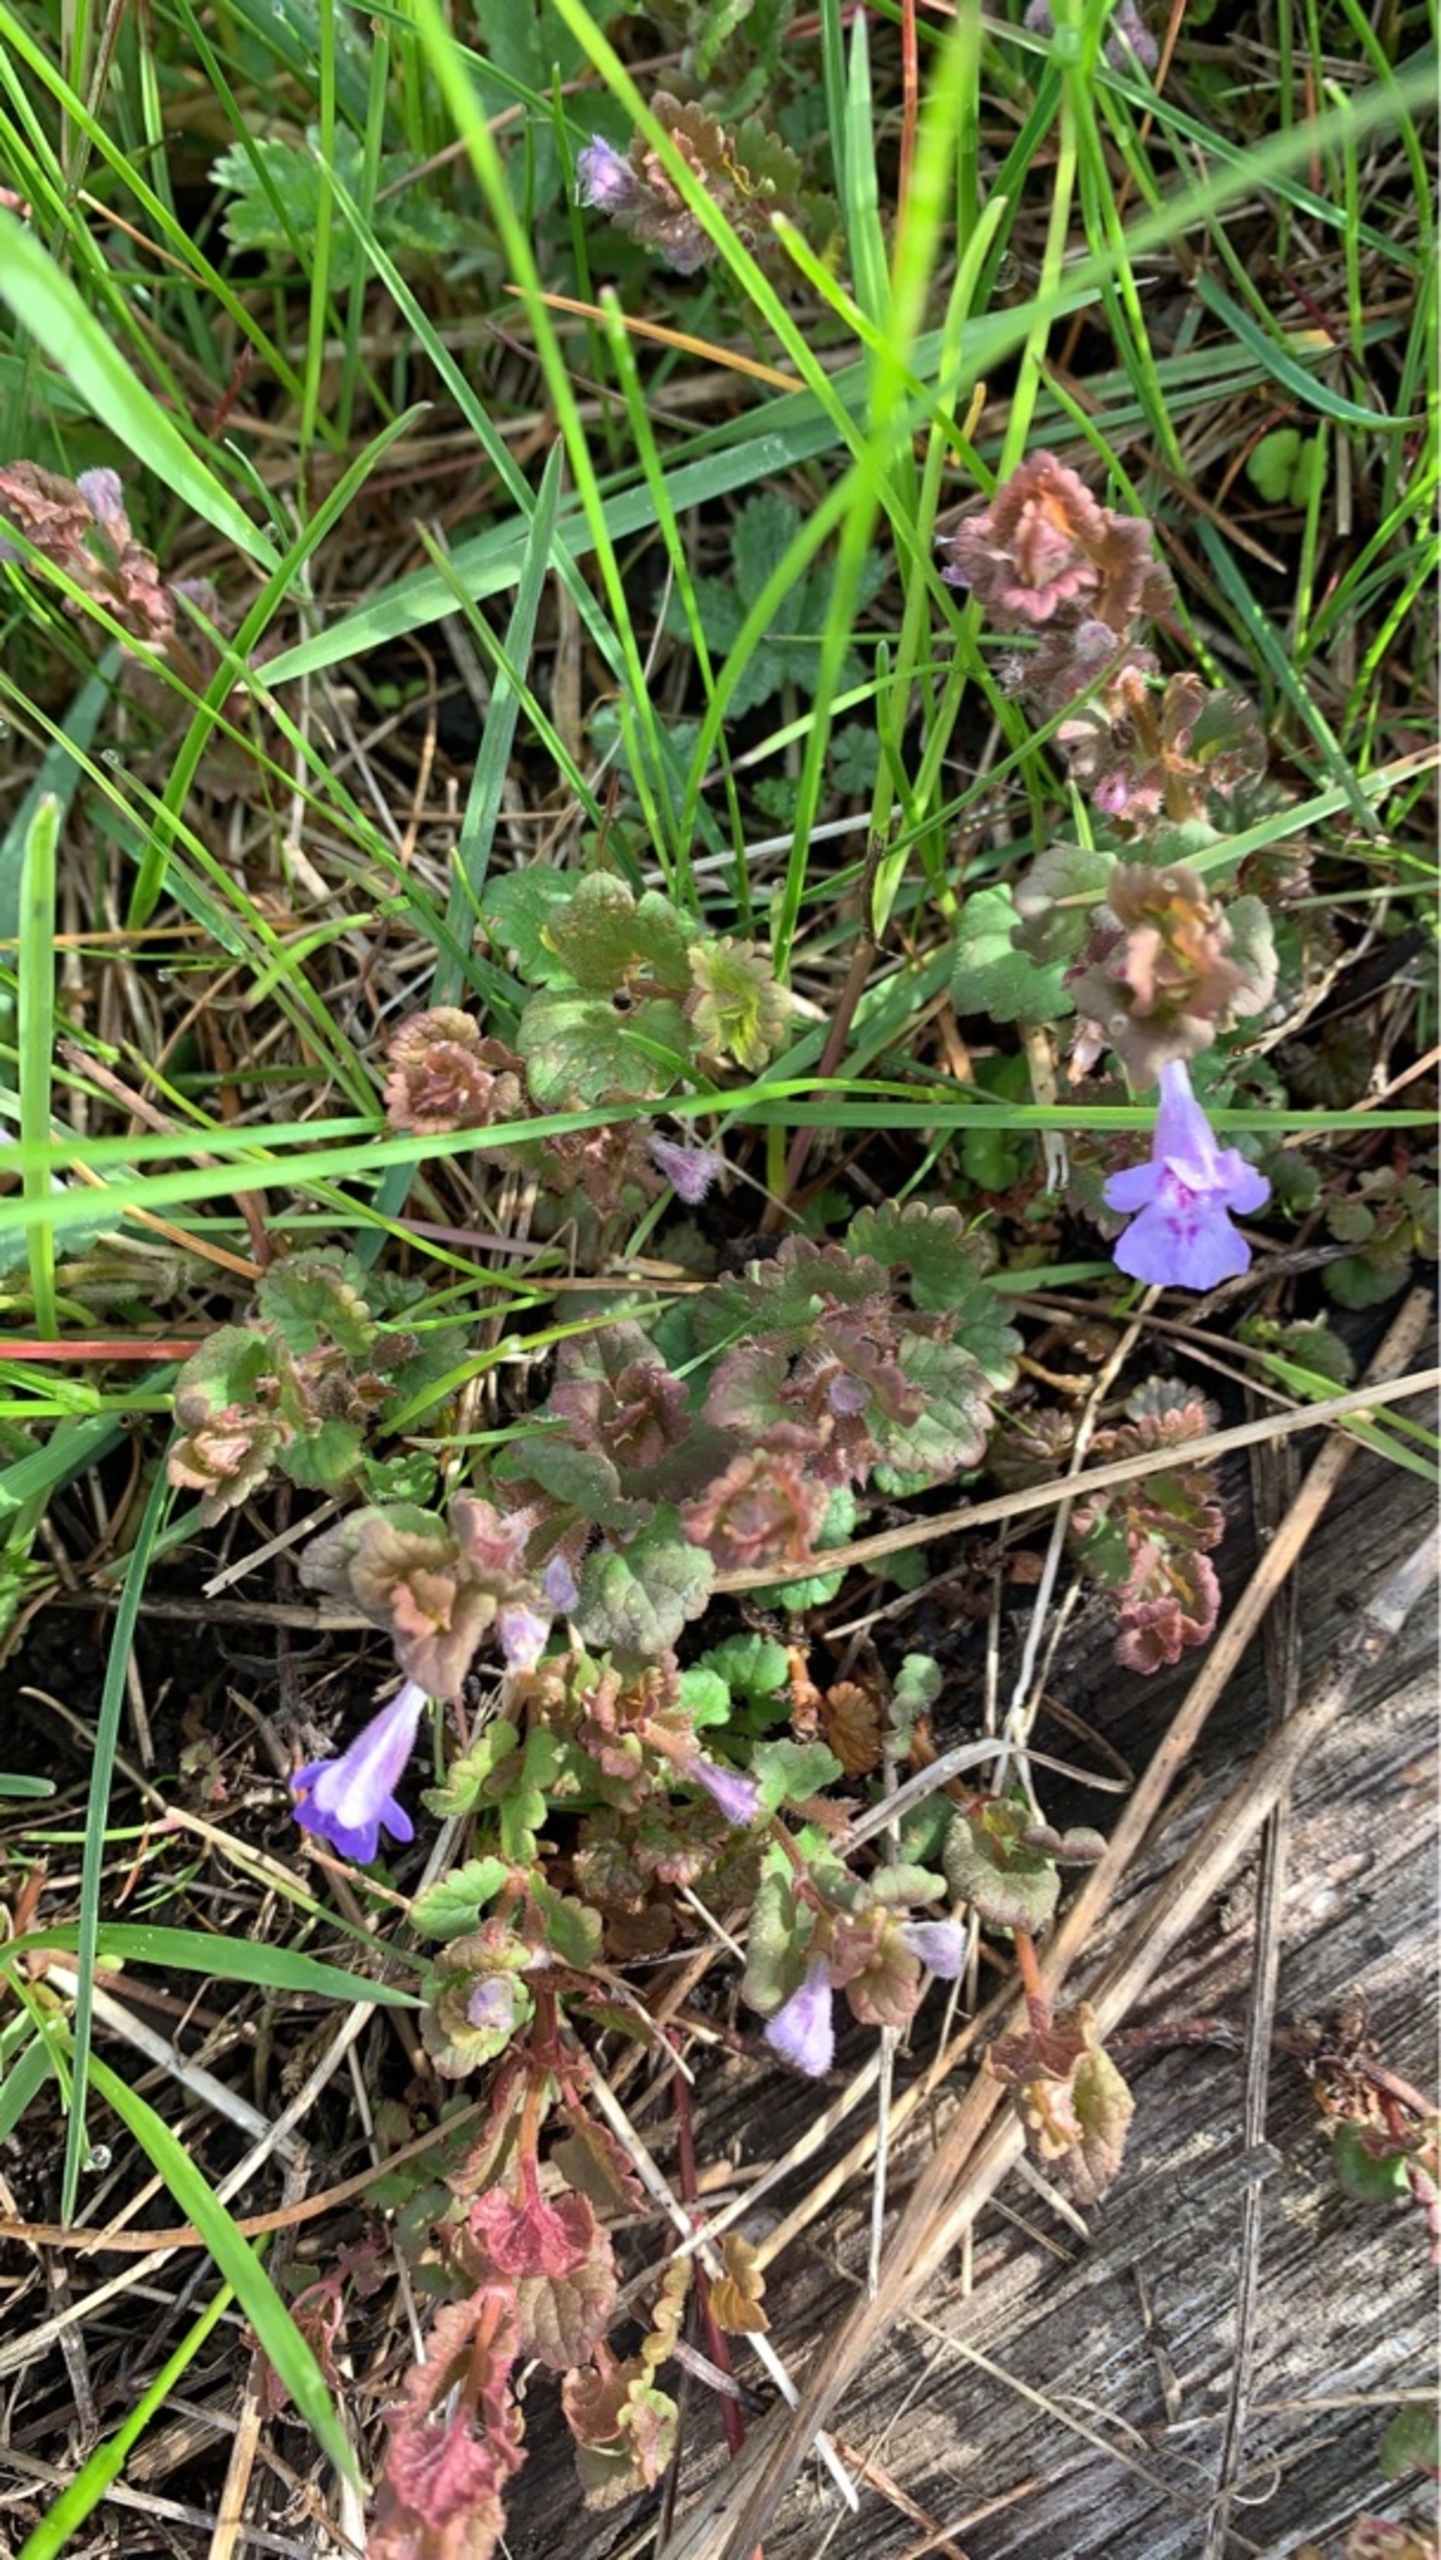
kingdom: Plantae
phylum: Tracheophyta
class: Magnoliopsida
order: Lamiales
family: Lamiaceae
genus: Glechoma
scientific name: Glechoma hederacea
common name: Korsknap
